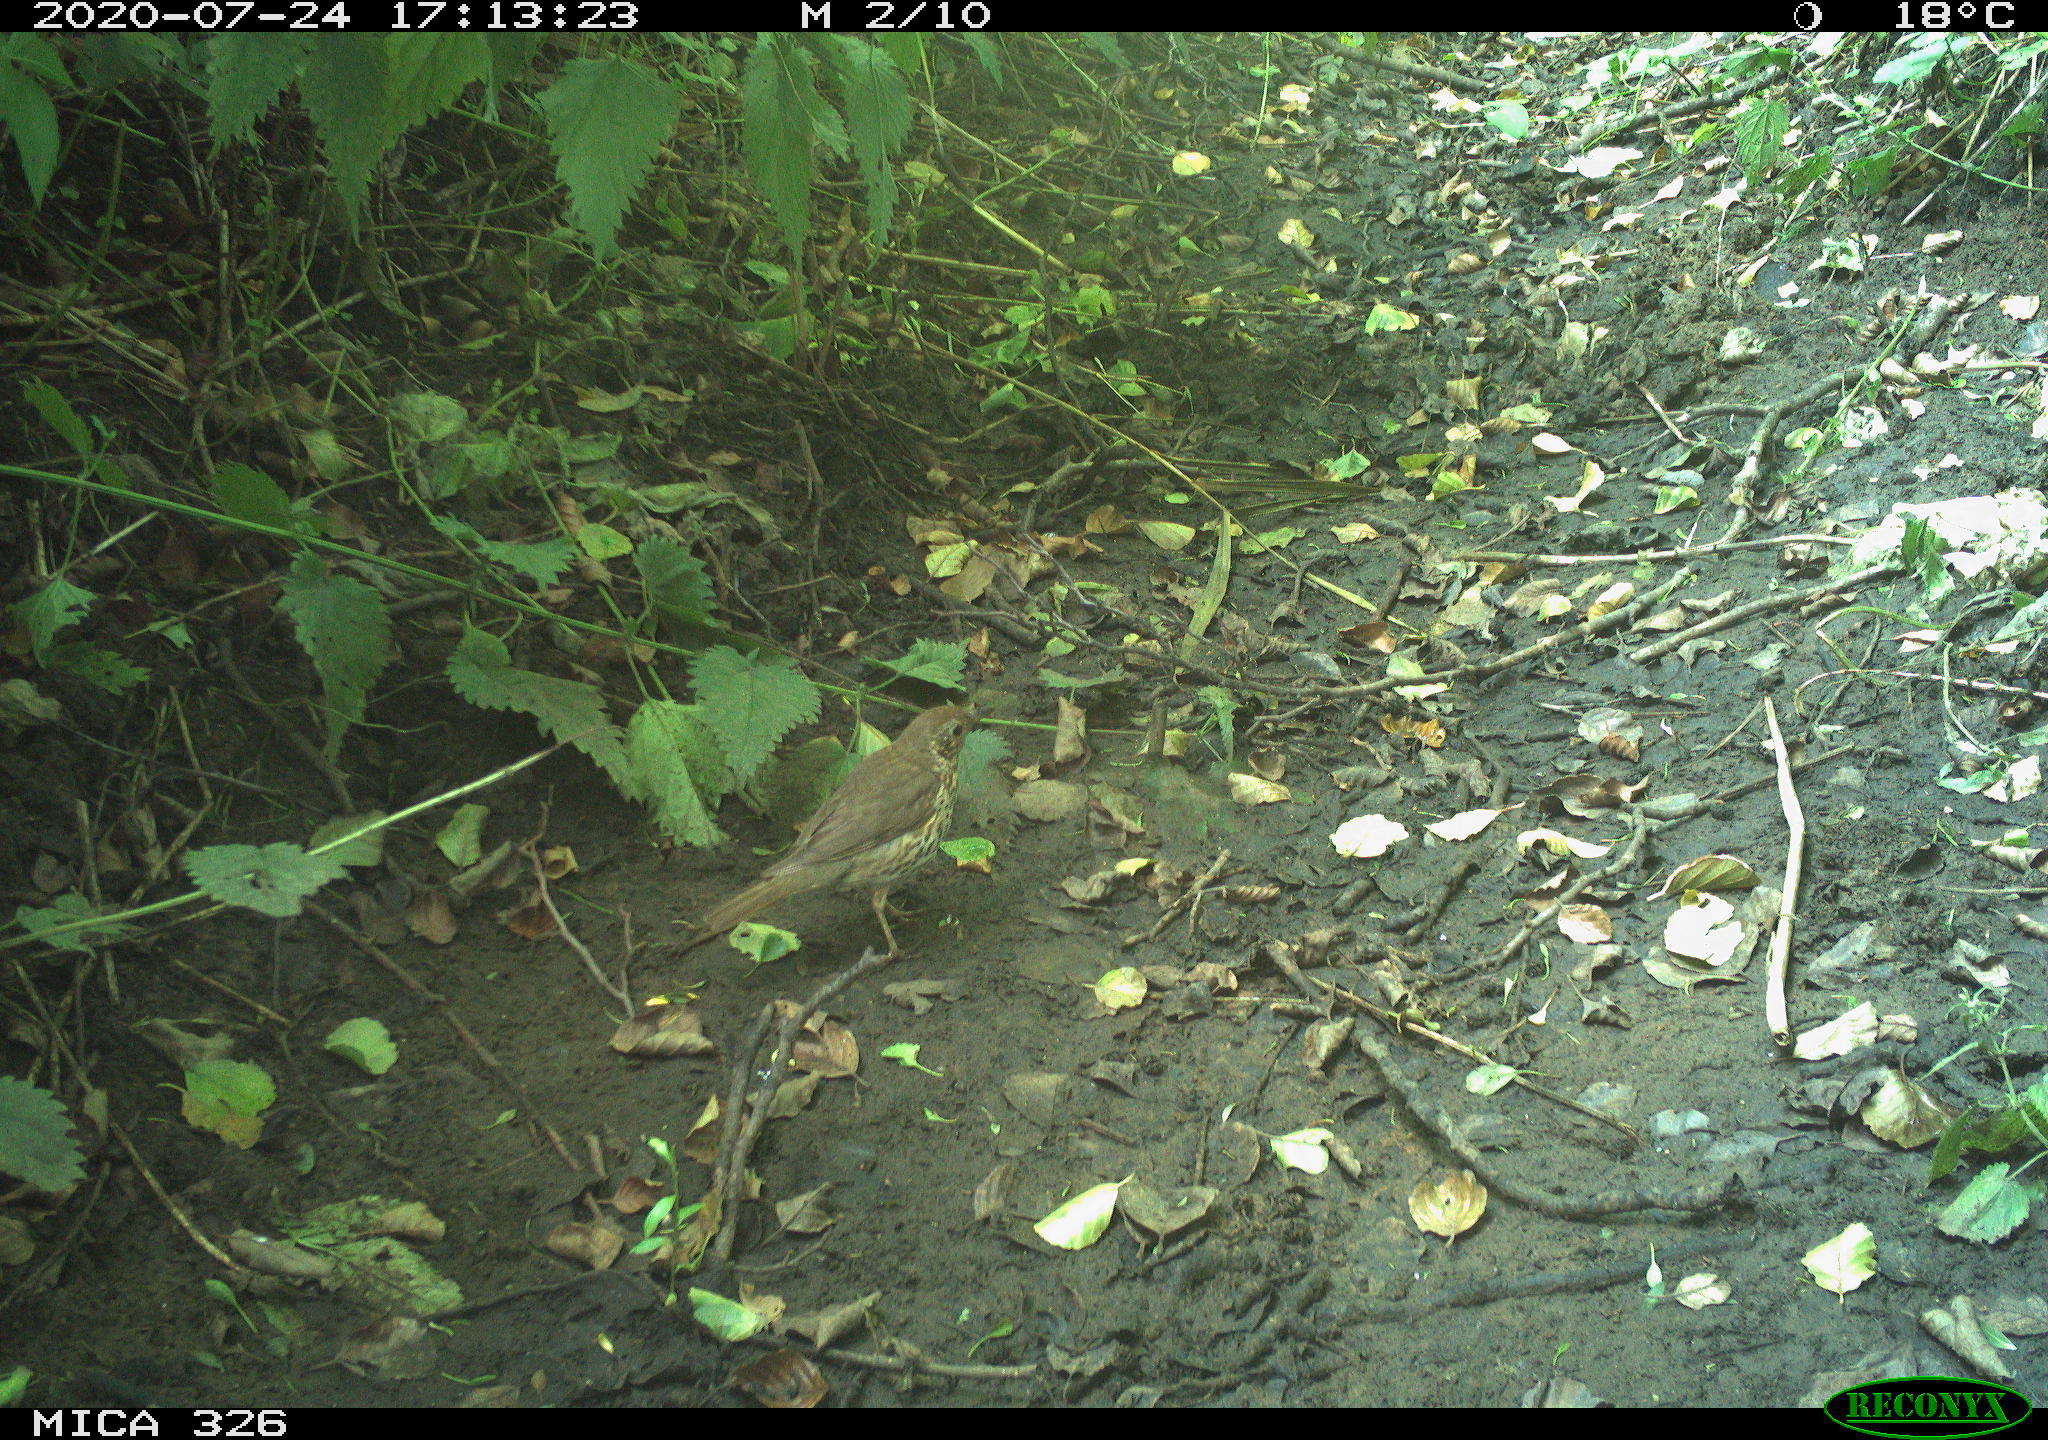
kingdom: Animalia
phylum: Chordata
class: Aves
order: Passeriformes
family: Turdidae
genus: Turdus
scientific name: Turdus philomelos
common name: Song thrush
